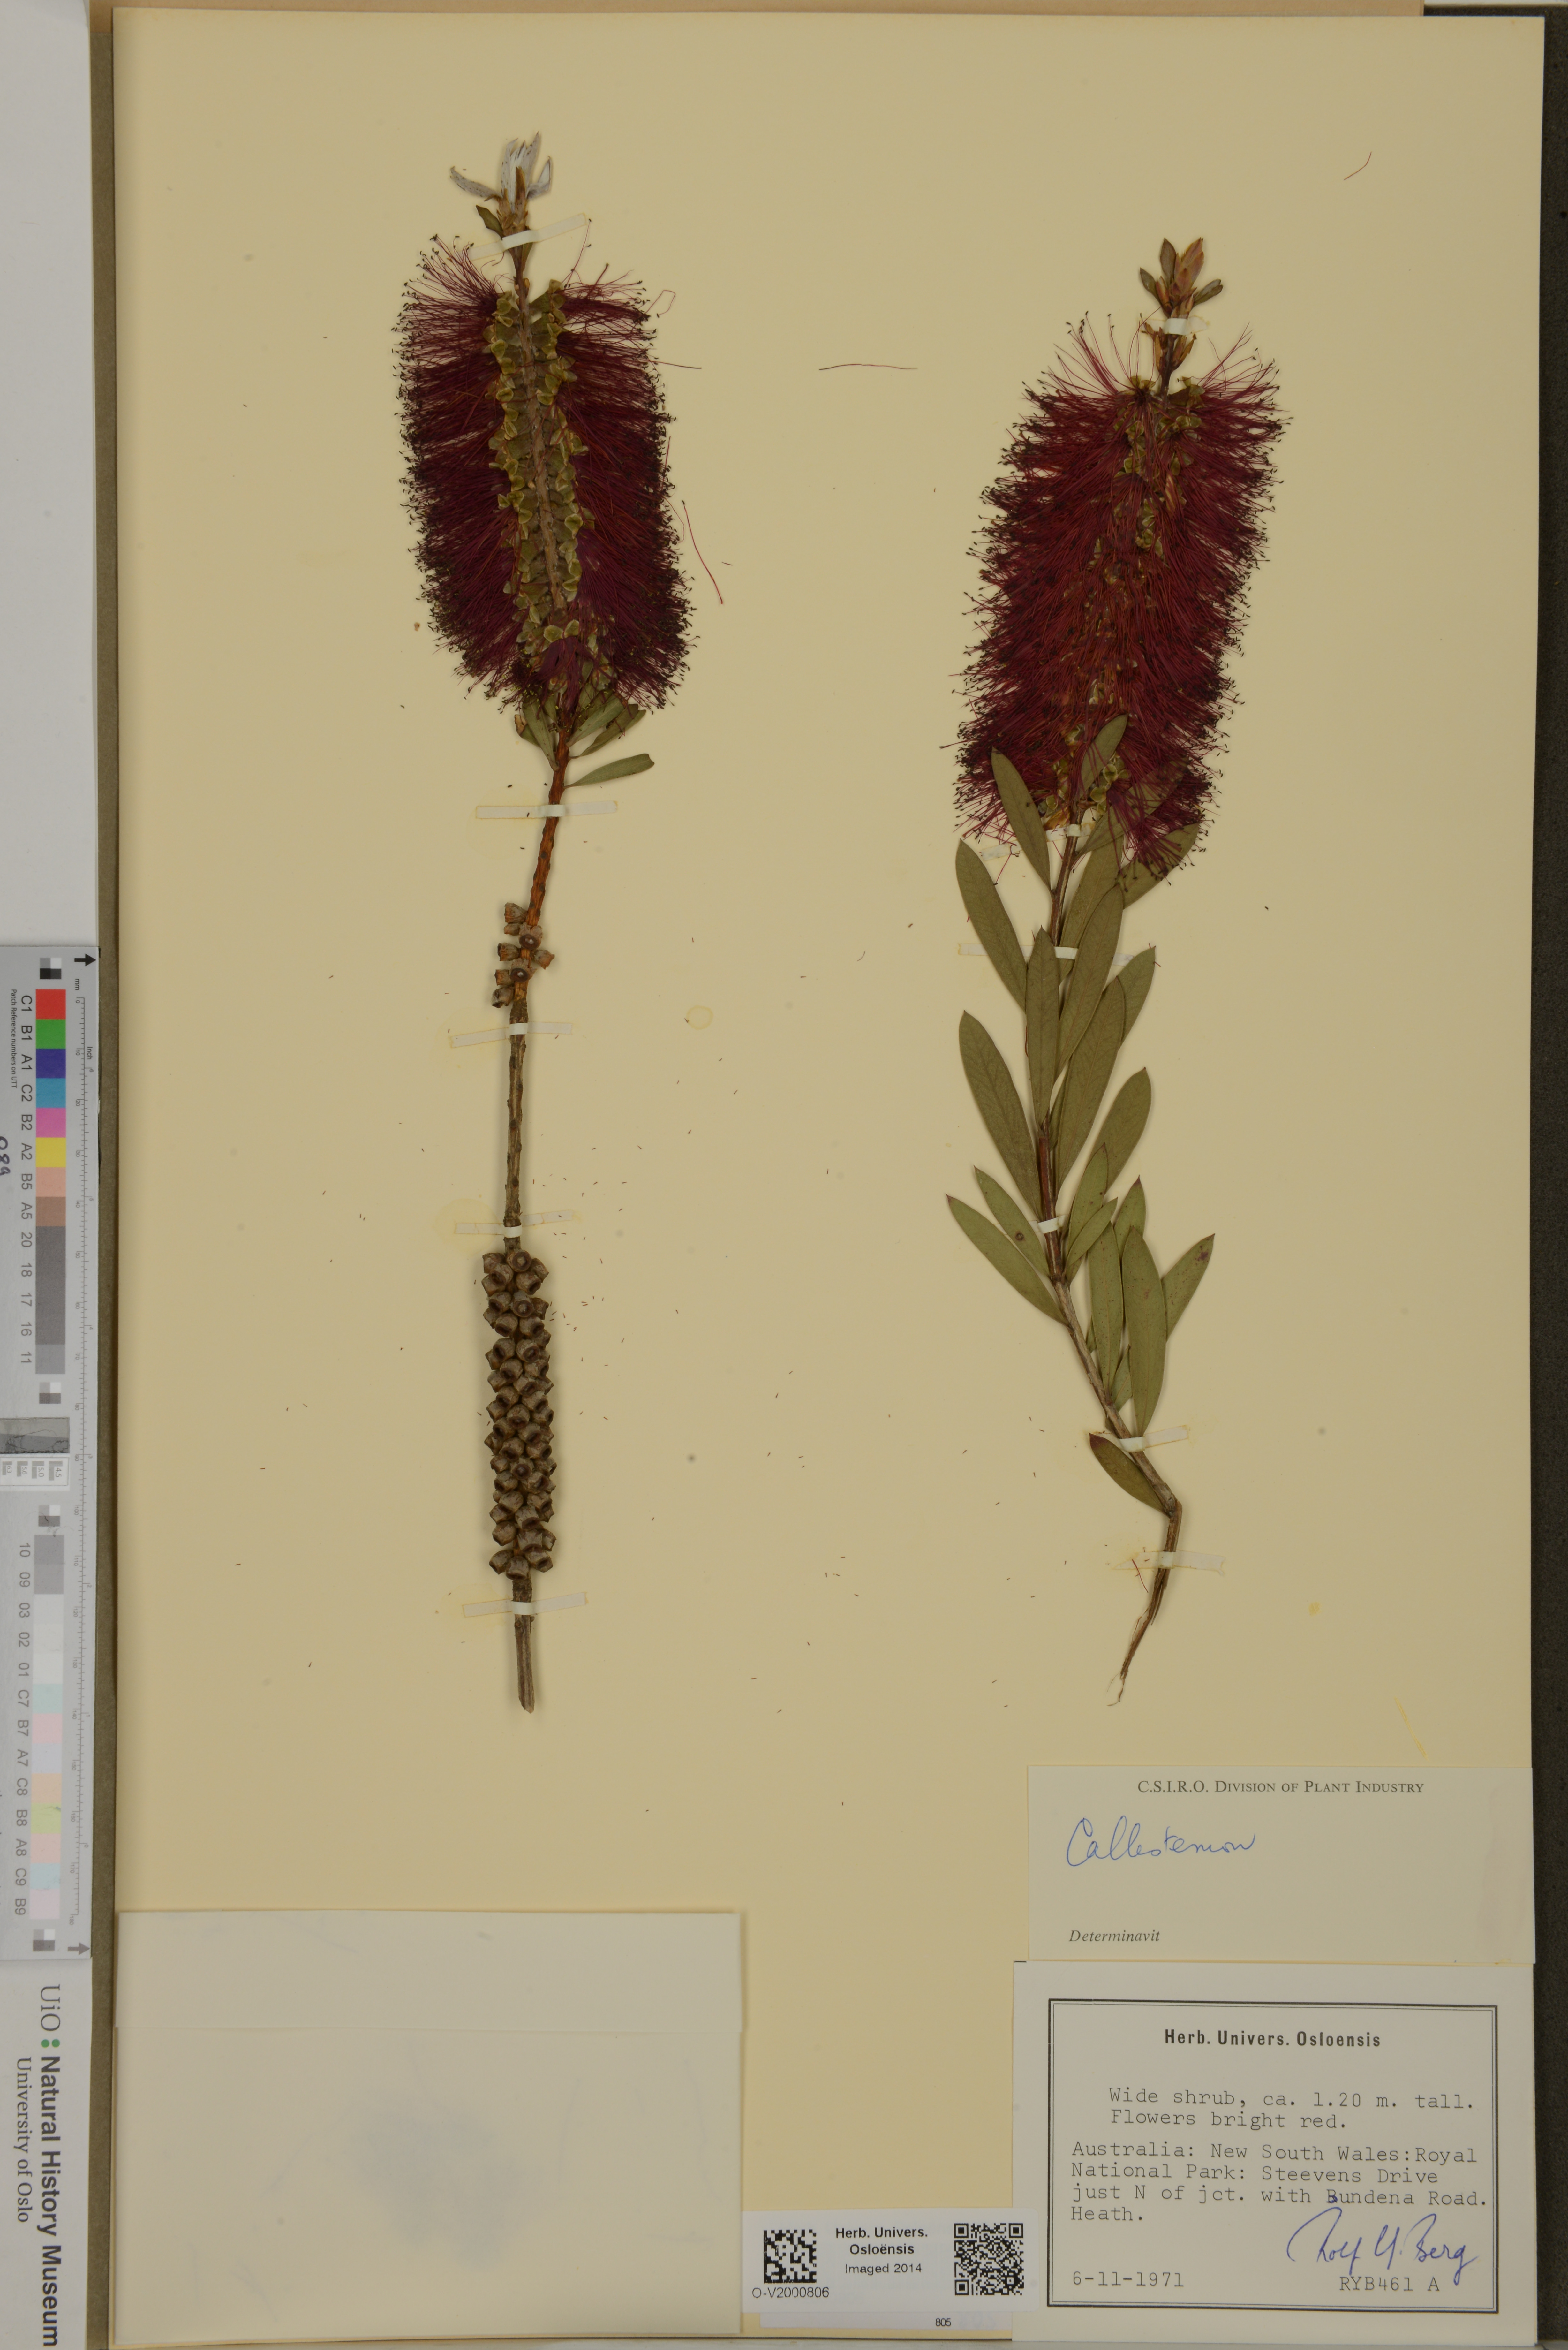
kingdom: Plantae
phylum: Tracheophyta
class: Magnoliopsida
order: Myrtales
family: Myrtaceae
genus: Callistemon
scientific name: Callistemon
